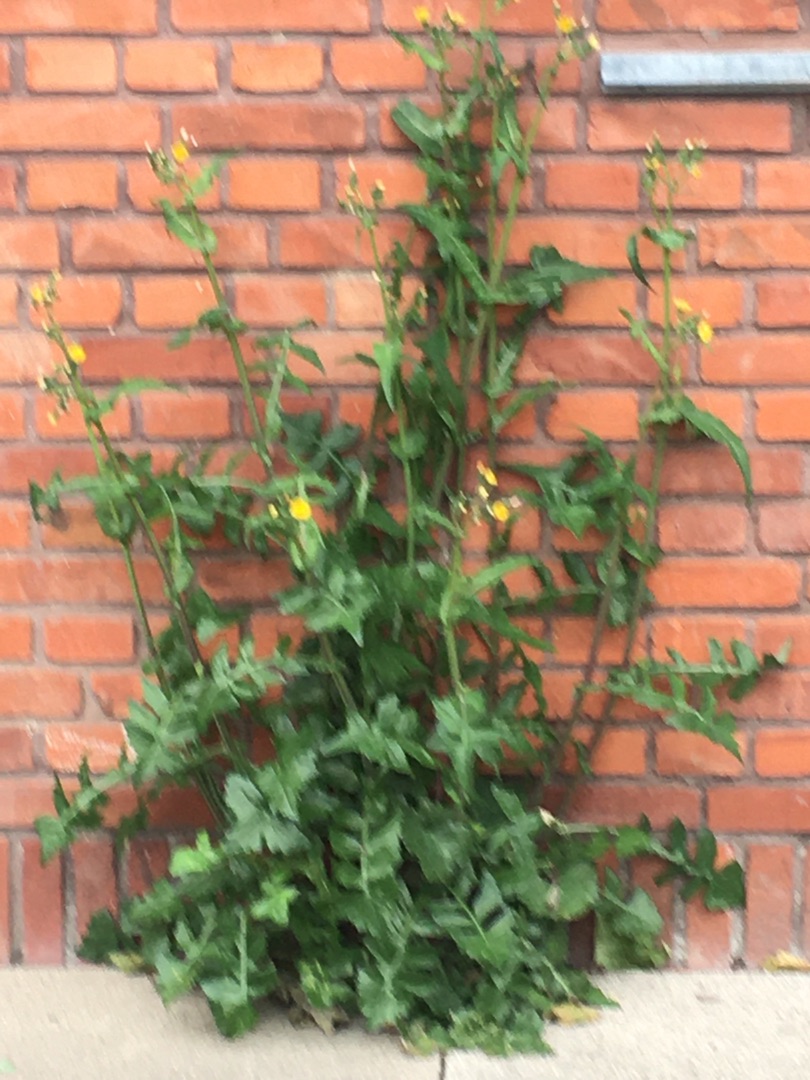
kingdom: Plantae
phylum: Tracheophyta
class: Magnoliopsida
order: Asterales
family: Asteraceae
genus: Sonchus
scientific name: Sonchus oleraceus
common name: Almindelig svinemælk
